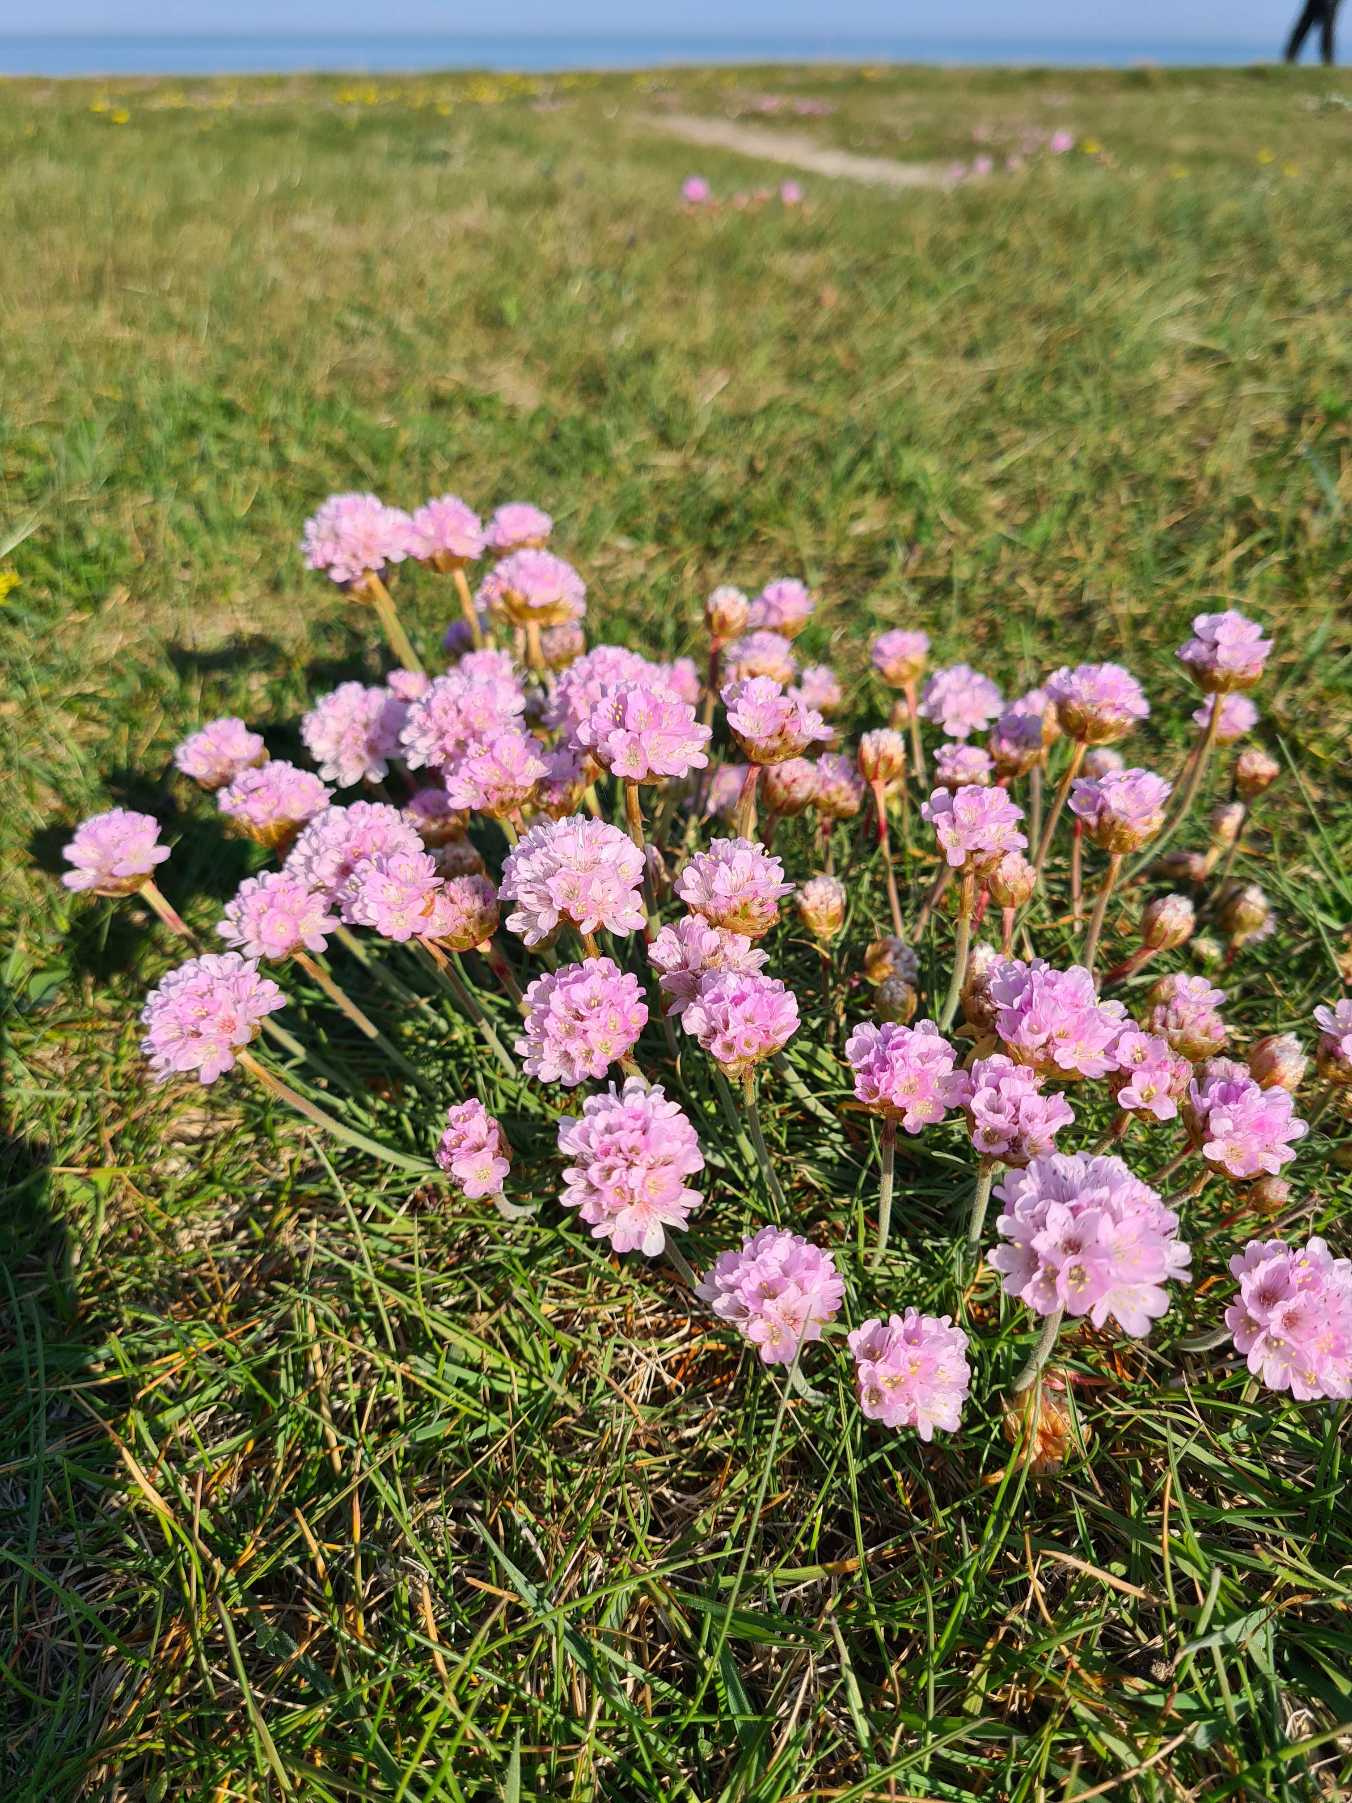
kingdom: Plantae
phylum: Tracheophyta
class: Magnoliopsida
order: Caryophyllales
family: Plumbaginaceae
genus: Armeria
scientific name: Armeria maritima
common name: Engelskgræs
